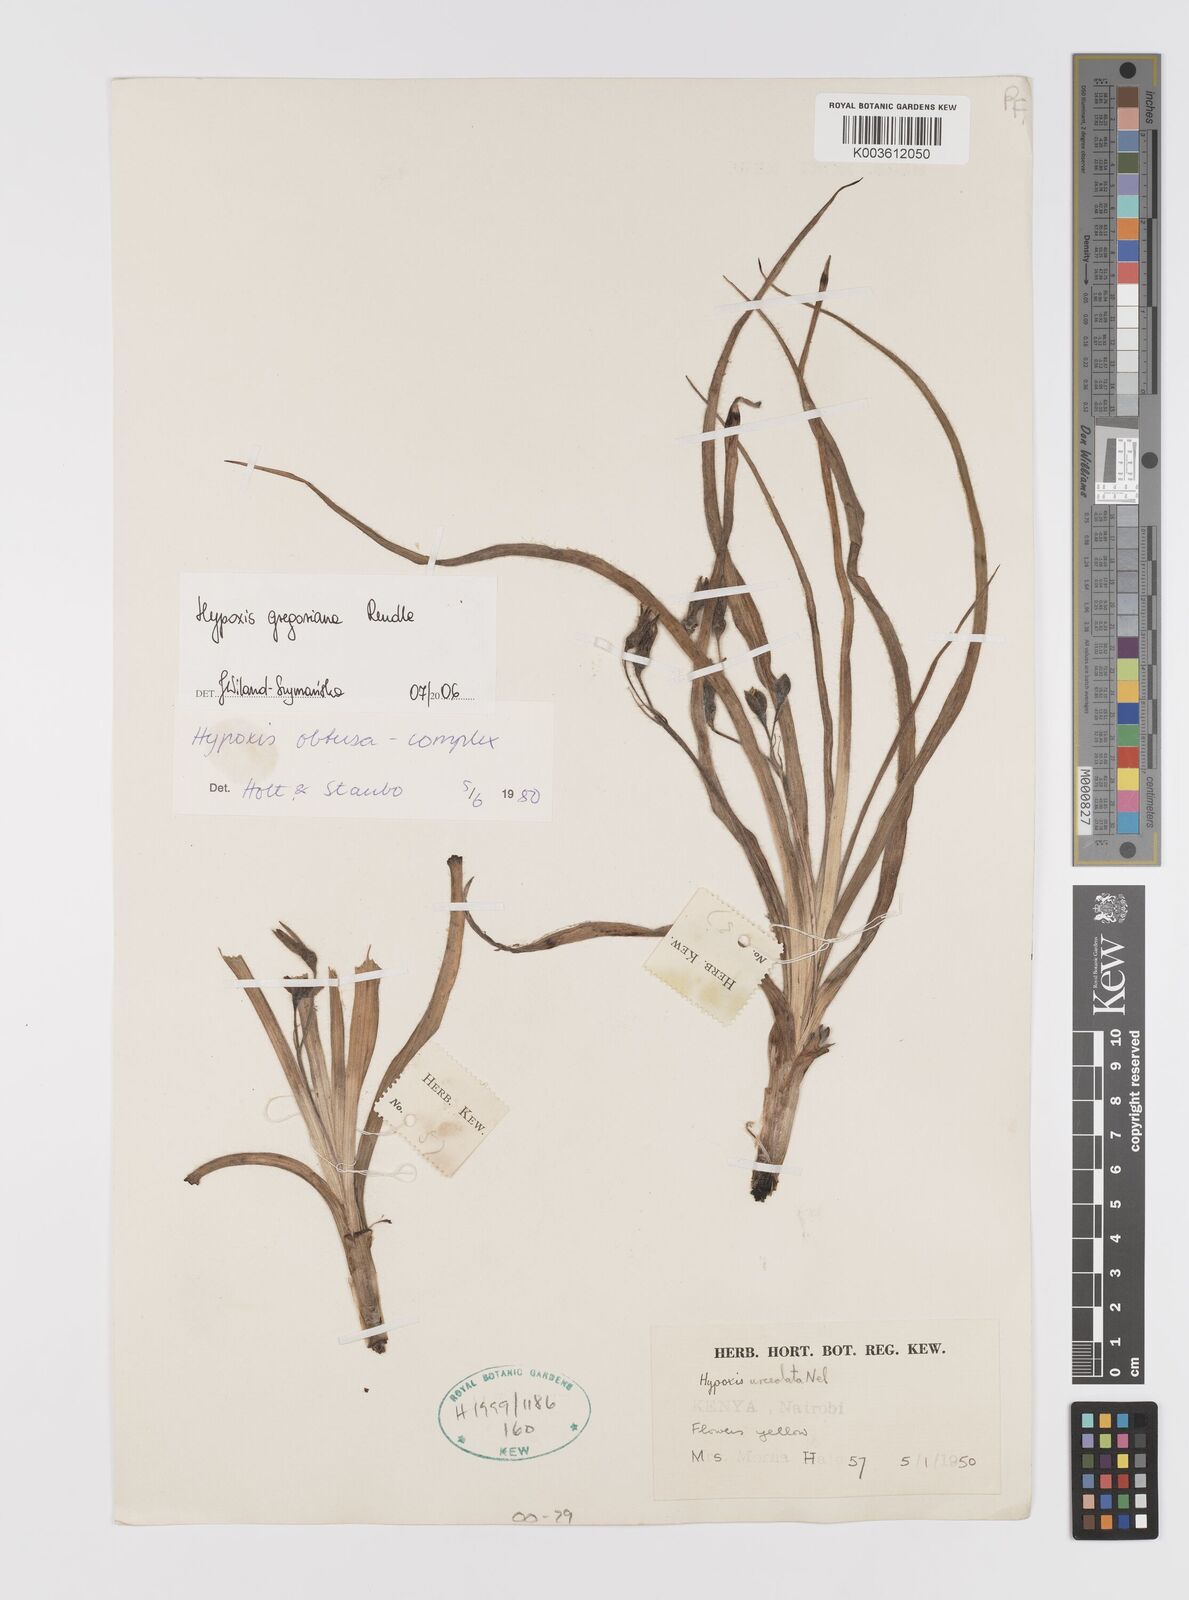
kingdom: Plantae
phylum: Tracheophyta
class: Liliopsida
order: Asparagales
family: Hypoxidaceae
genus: Hypoxis
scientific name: Hypoxis gregoriana
